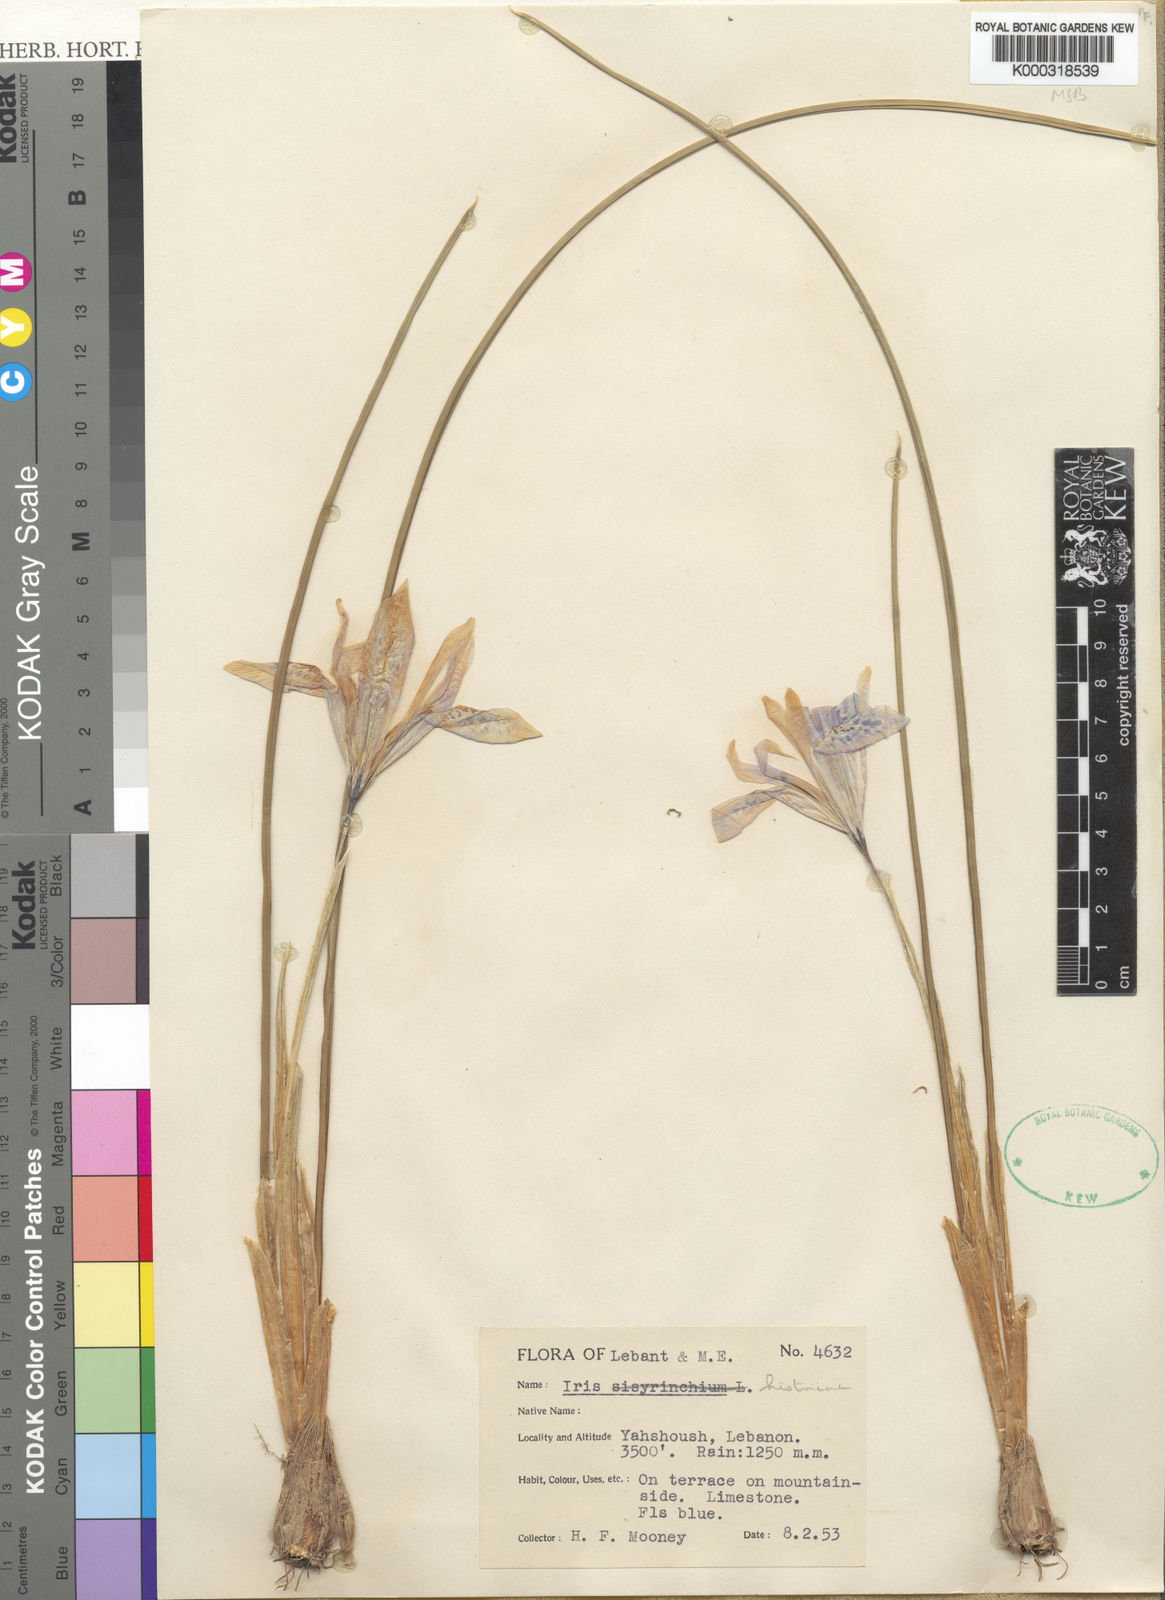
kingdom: Plantae
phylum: Tracheophyta
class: Liliopsida
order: Asparagales
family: Iridaceae
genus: Iris
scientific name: Iris histrio
